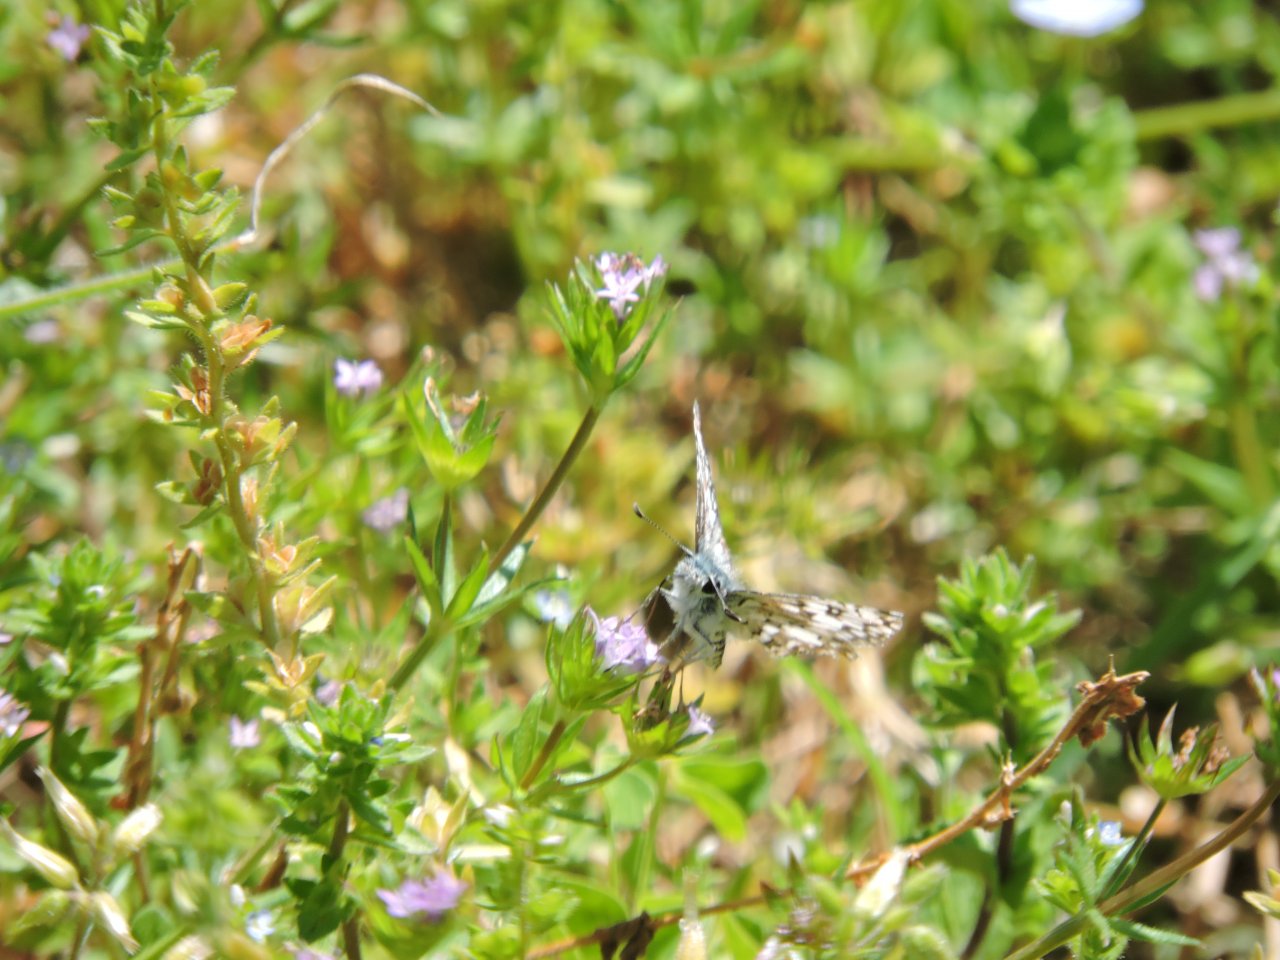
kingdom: Animalia
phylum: Arthropoda
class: Insecta
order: Lepidoptera
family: Hesperiidae
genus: Pyrgus
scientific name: Pyrgus
